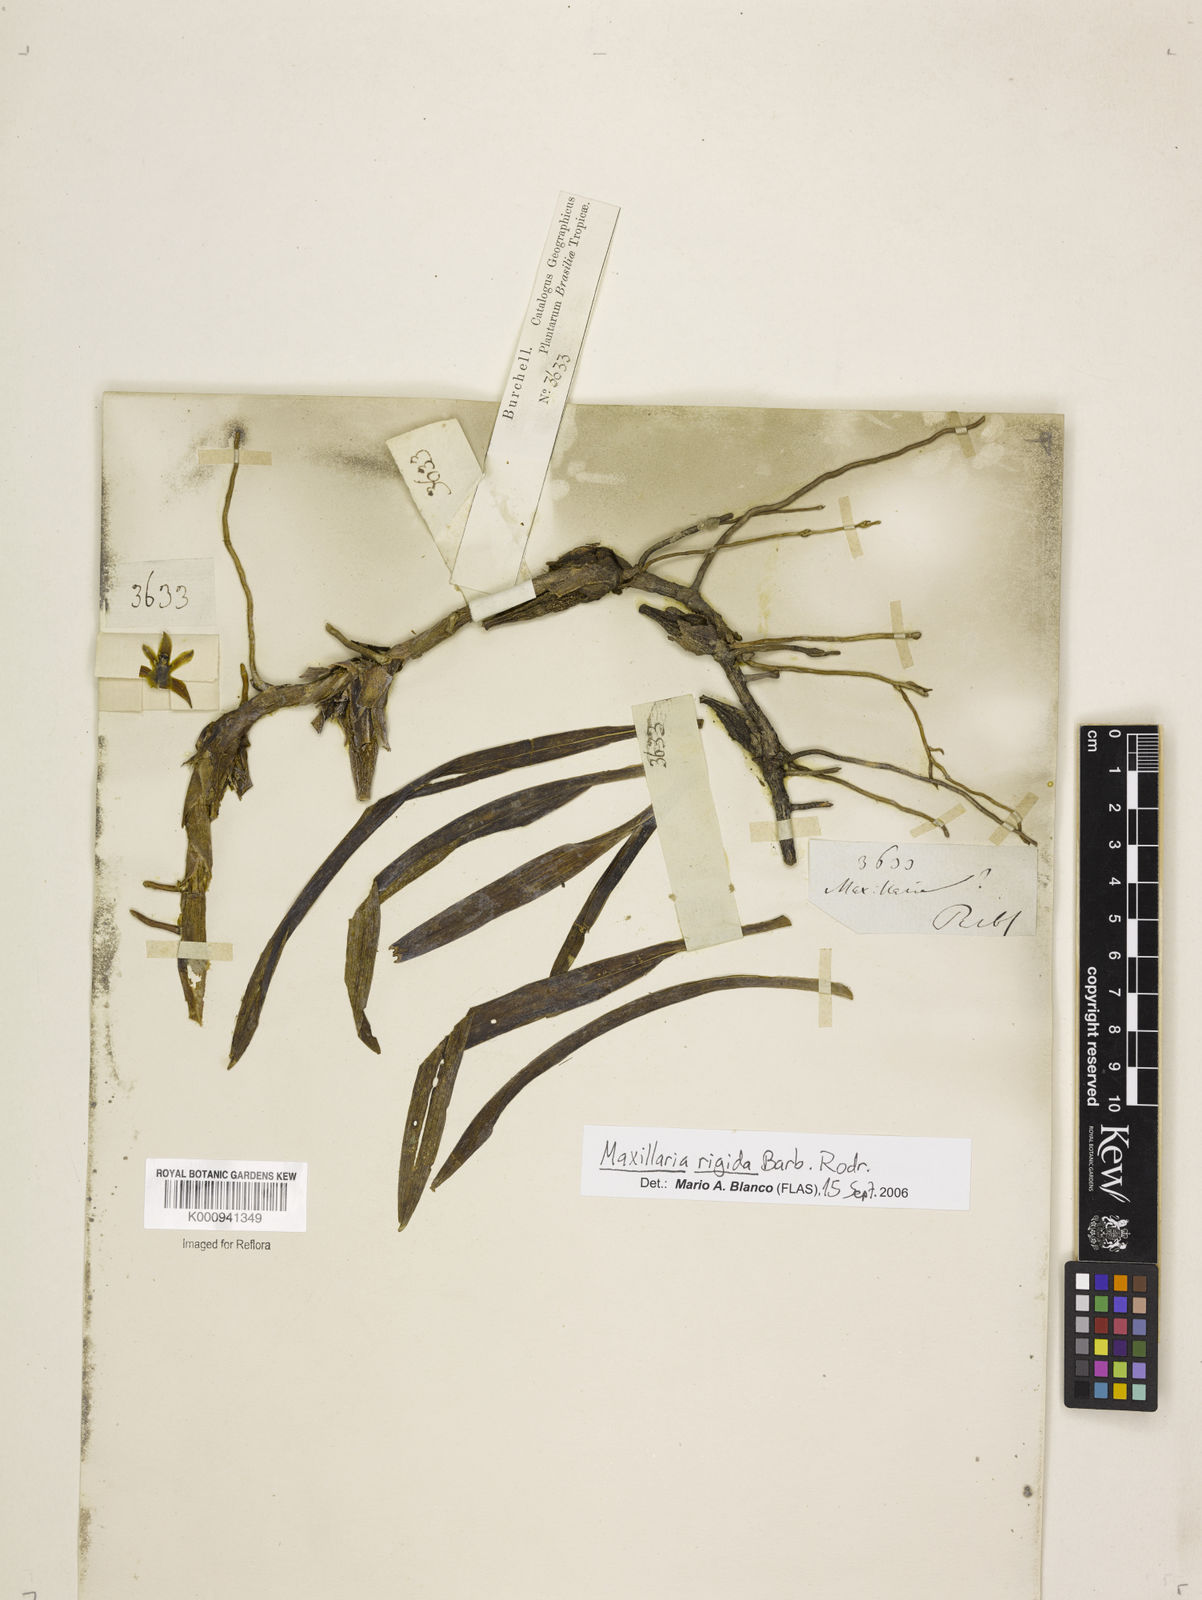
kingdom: Plantae
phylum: Tracheophyta
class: Liliopsida
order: Asparagales
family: Orchidaceae
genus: Maxillaria
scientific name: Maxillaria pendens
